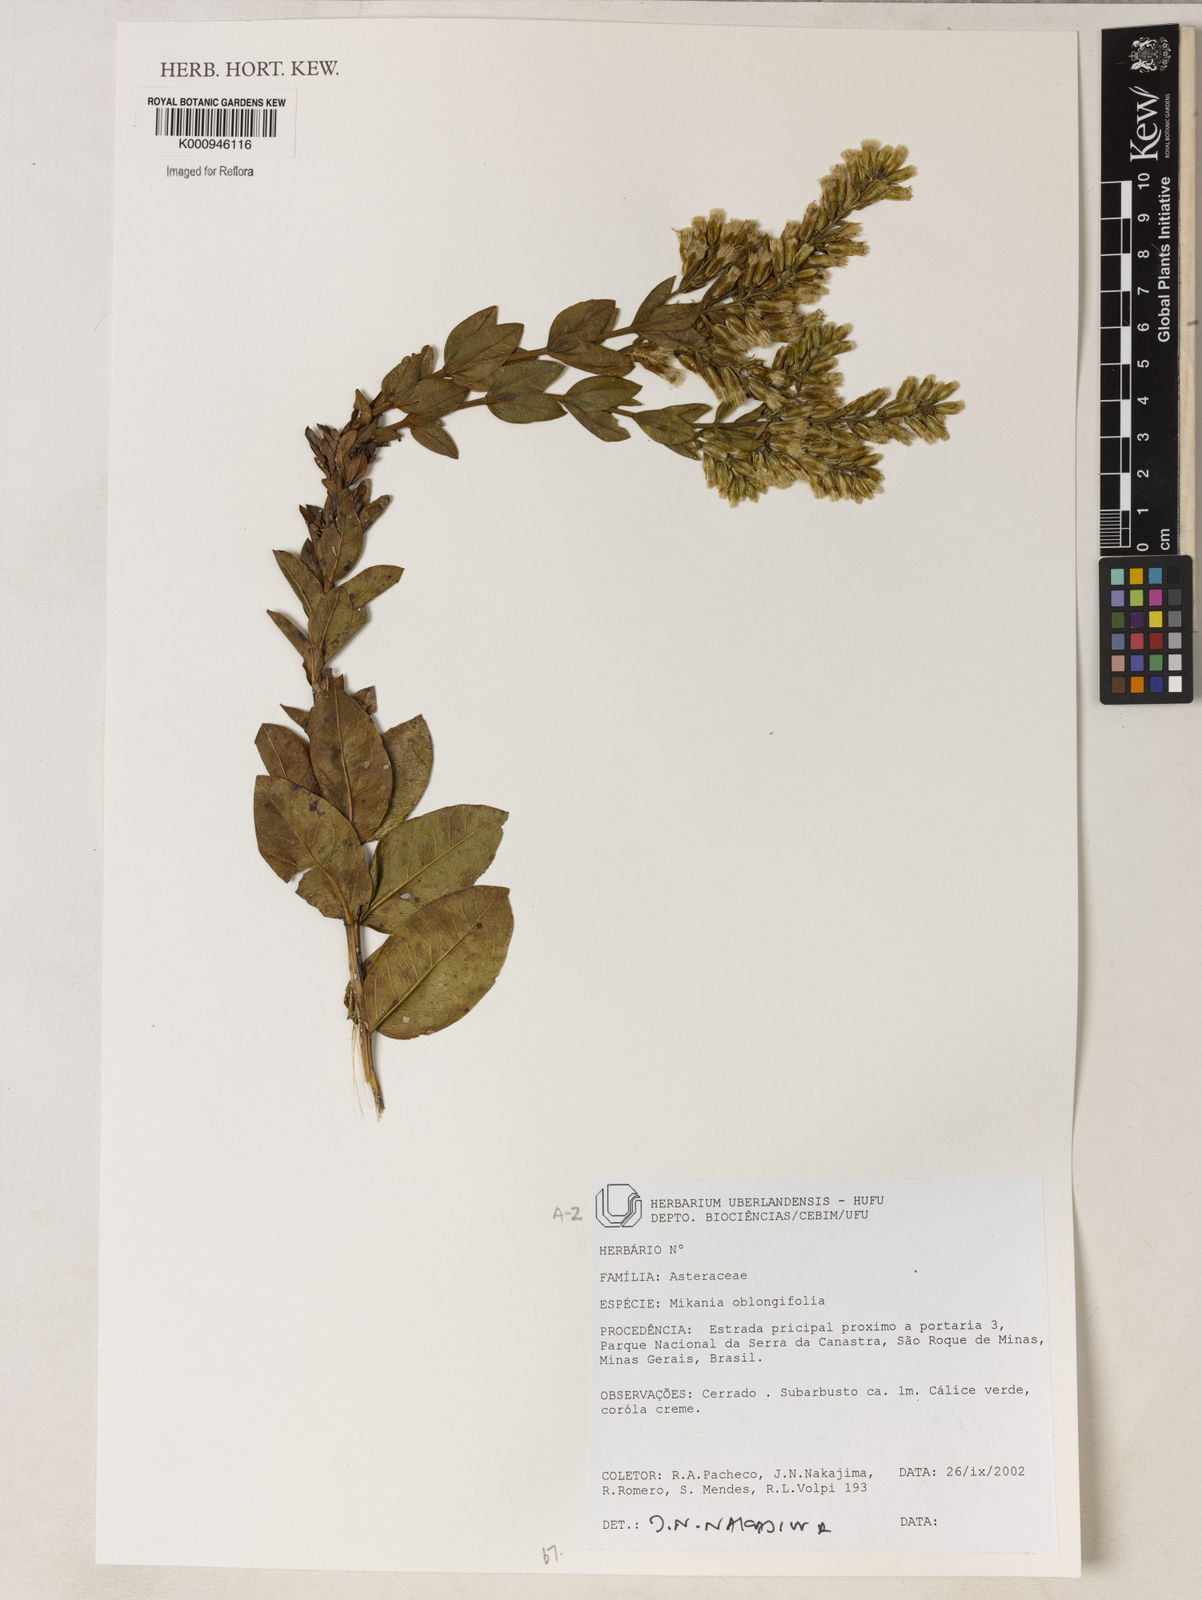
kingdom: Plantae
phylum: Tracheophyta
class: Magnoliopsida
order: Asterales
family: Asteraceae
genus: Mikania
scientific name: Mikania oblongifolia
